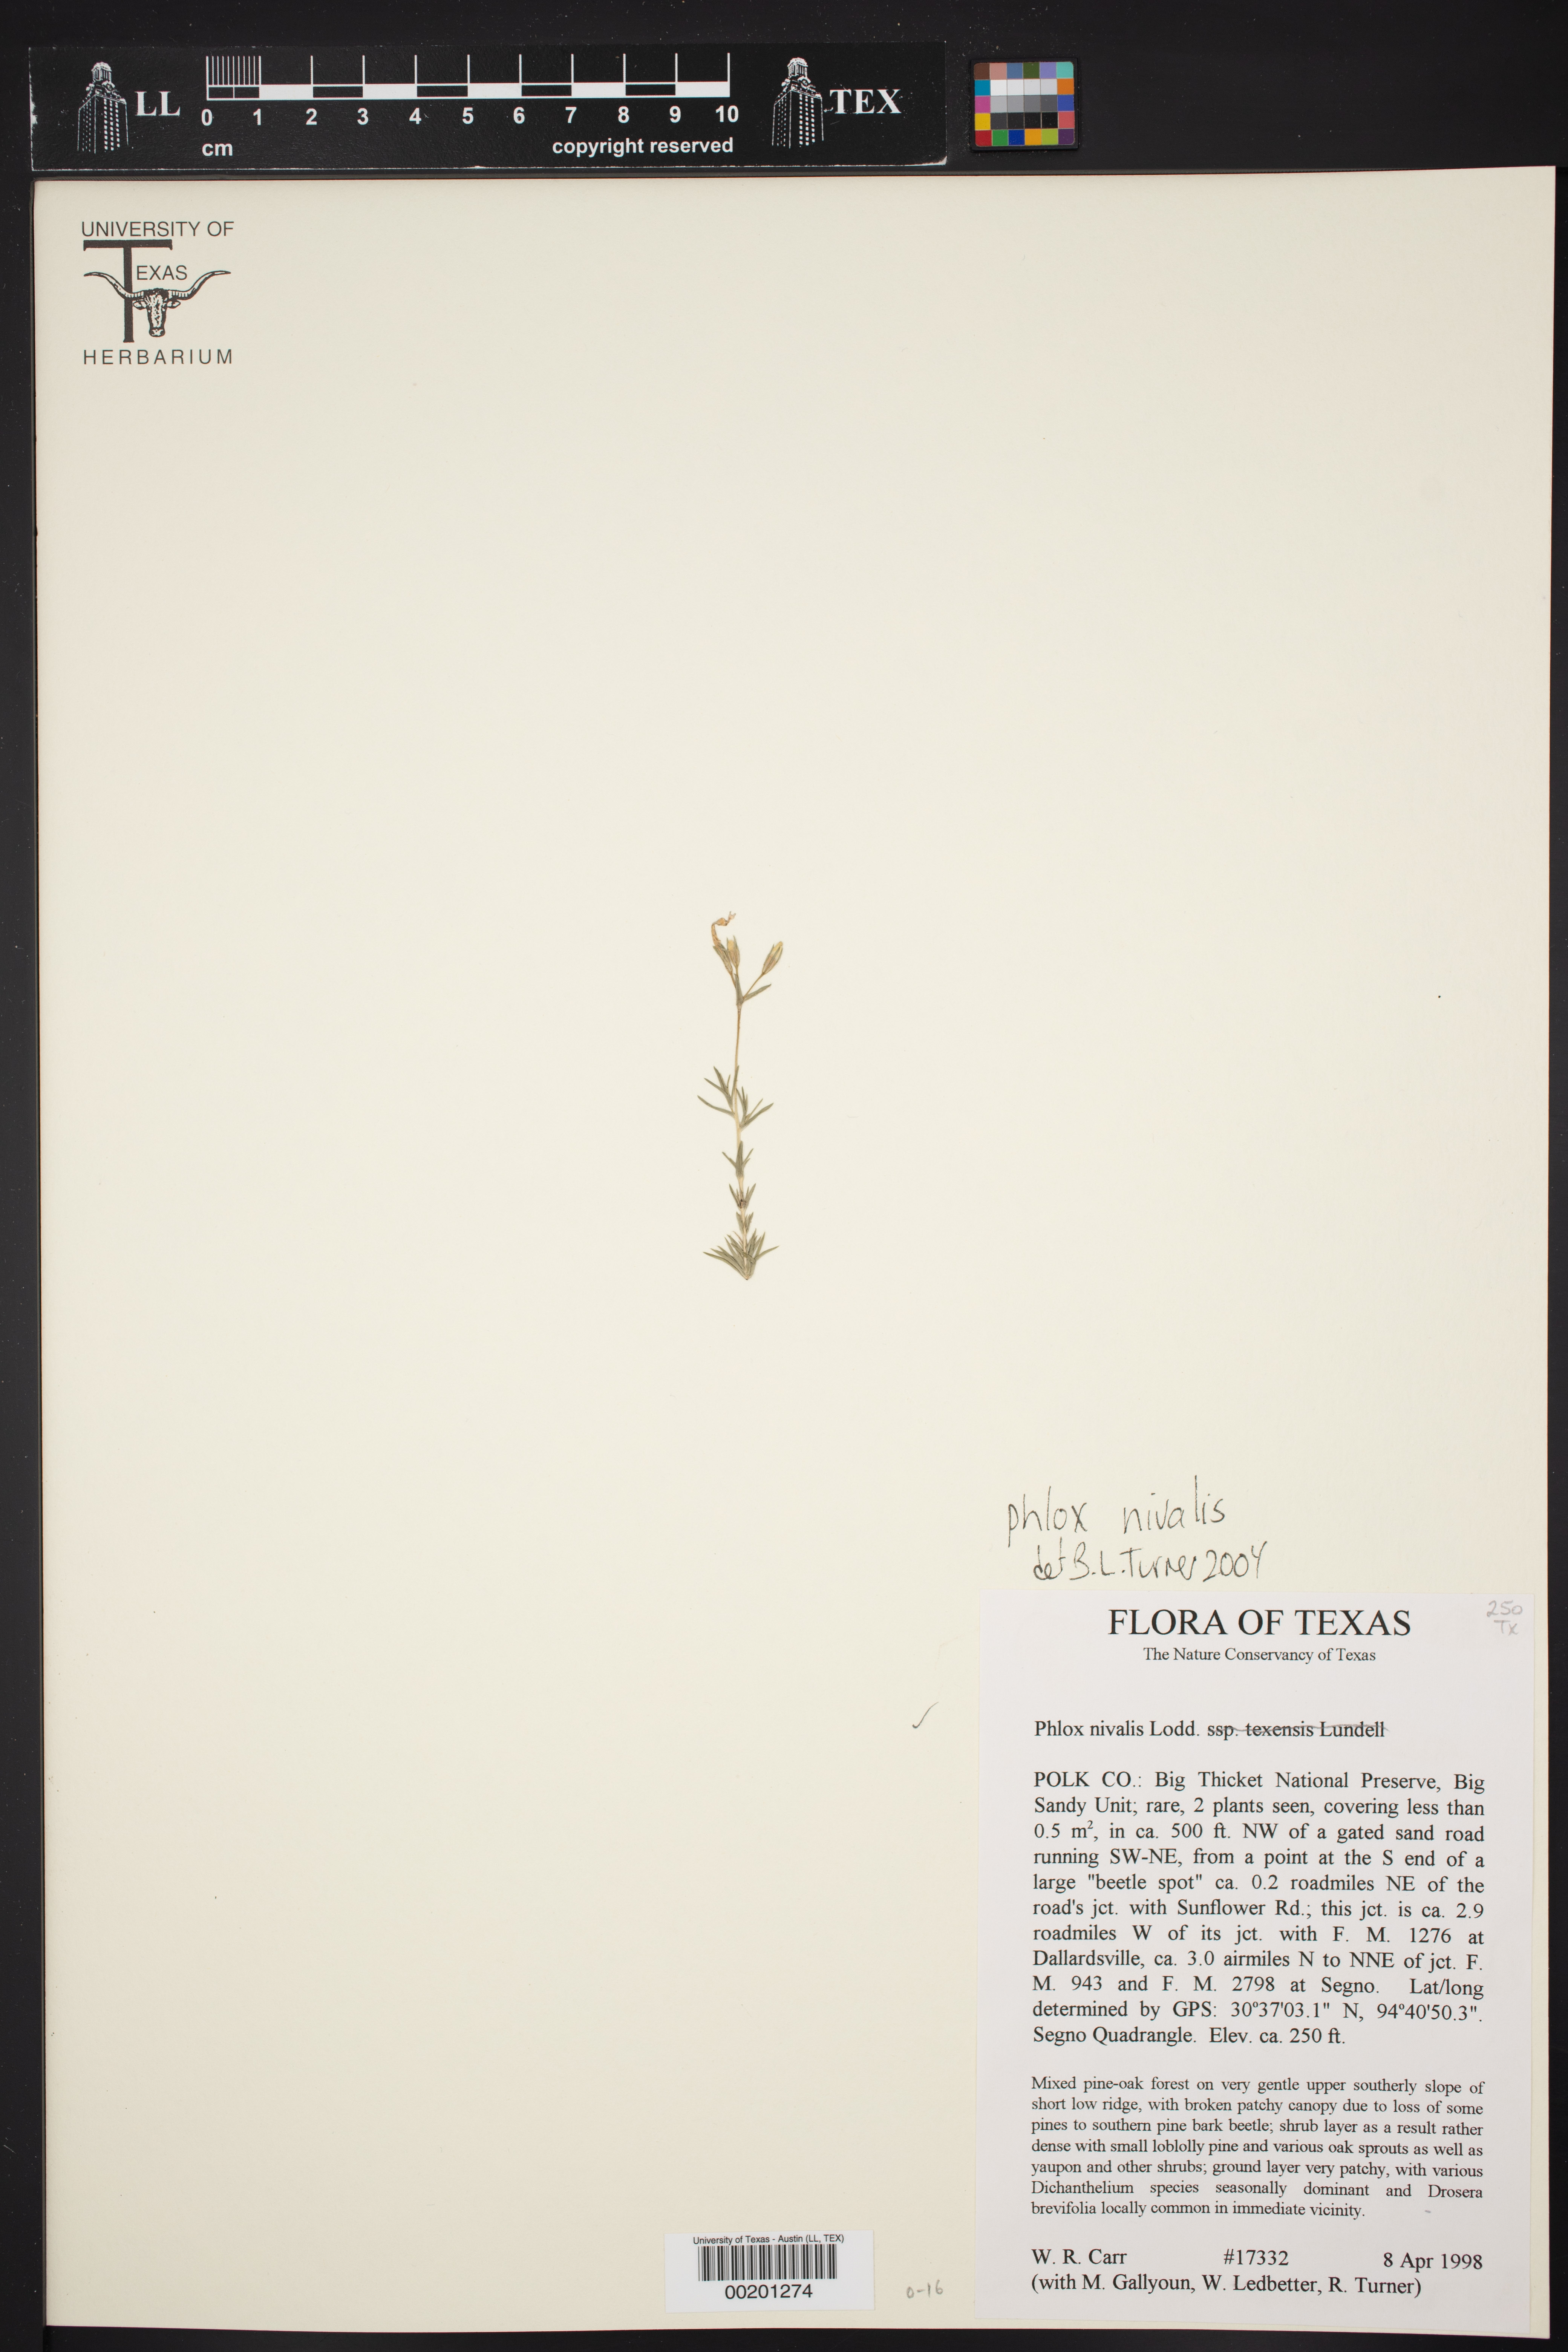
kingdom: Plantae
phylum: Tracheophyta
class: Magnoliopsida
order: Ericales
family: Polemoniaceae
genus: Phlox
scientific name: Phlox nivalis
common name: Trailing phlox
